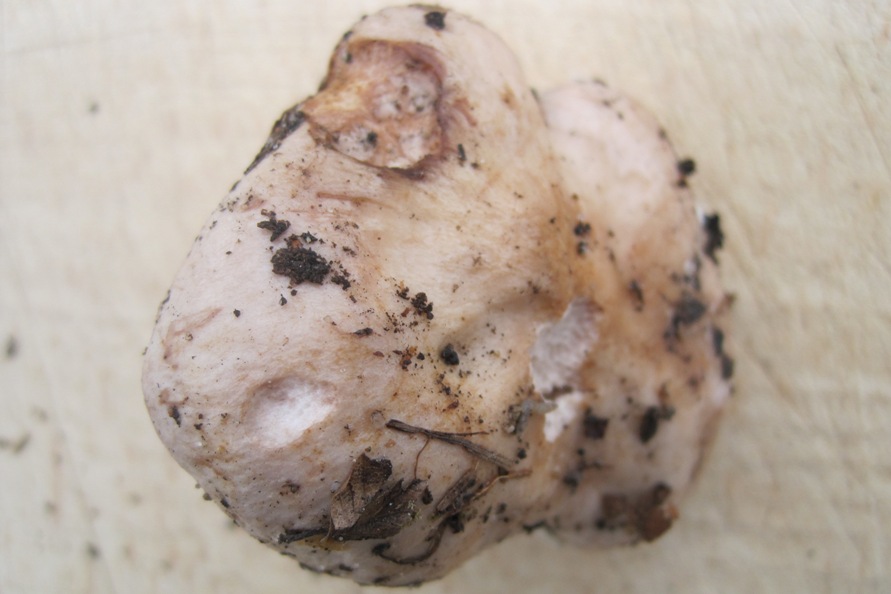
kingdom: Fungi
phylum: Basidiomycota
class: Agaricomycetes
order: Russulales
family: Russulaceae
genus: Lactarius
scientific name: Lactarius pallidus
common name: bleg mælkehat
